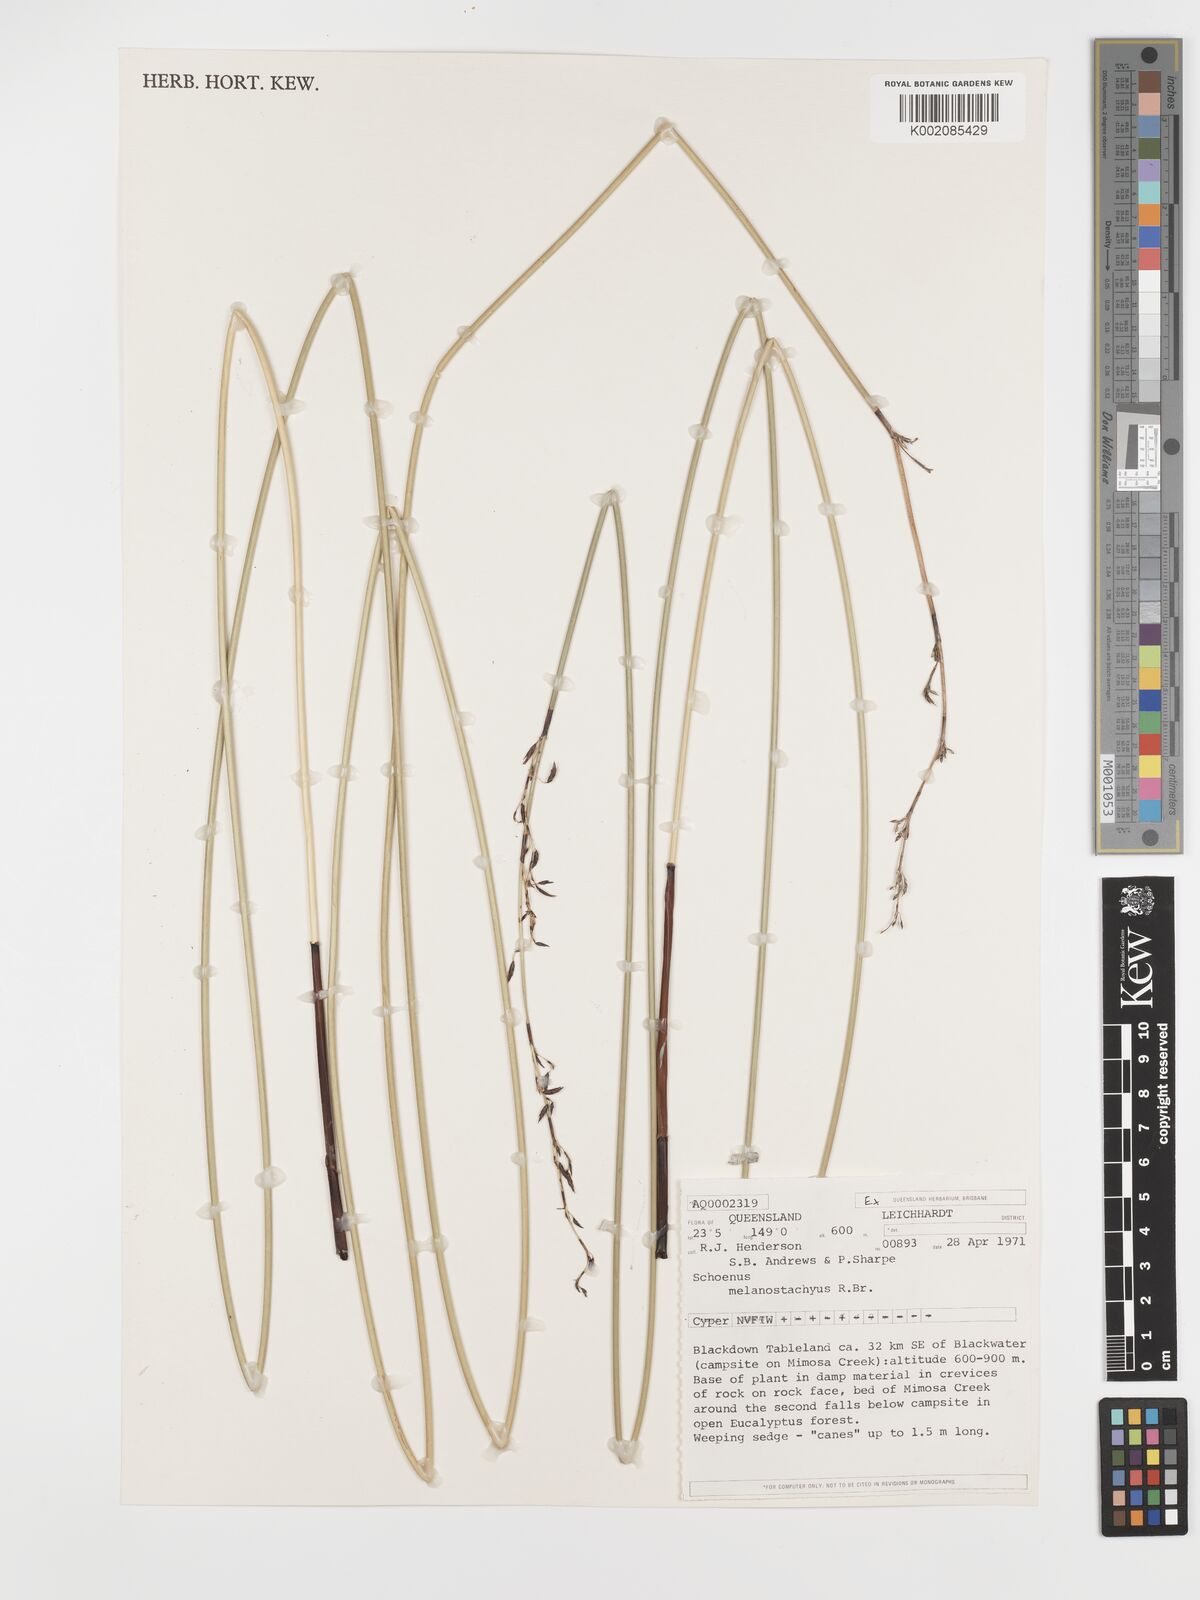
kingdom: Plantae
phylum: Tracheophyta
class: Liliopsida
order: Poales
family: Cyperaceae
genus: Schoenus
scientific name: Schoenus melanostachys
